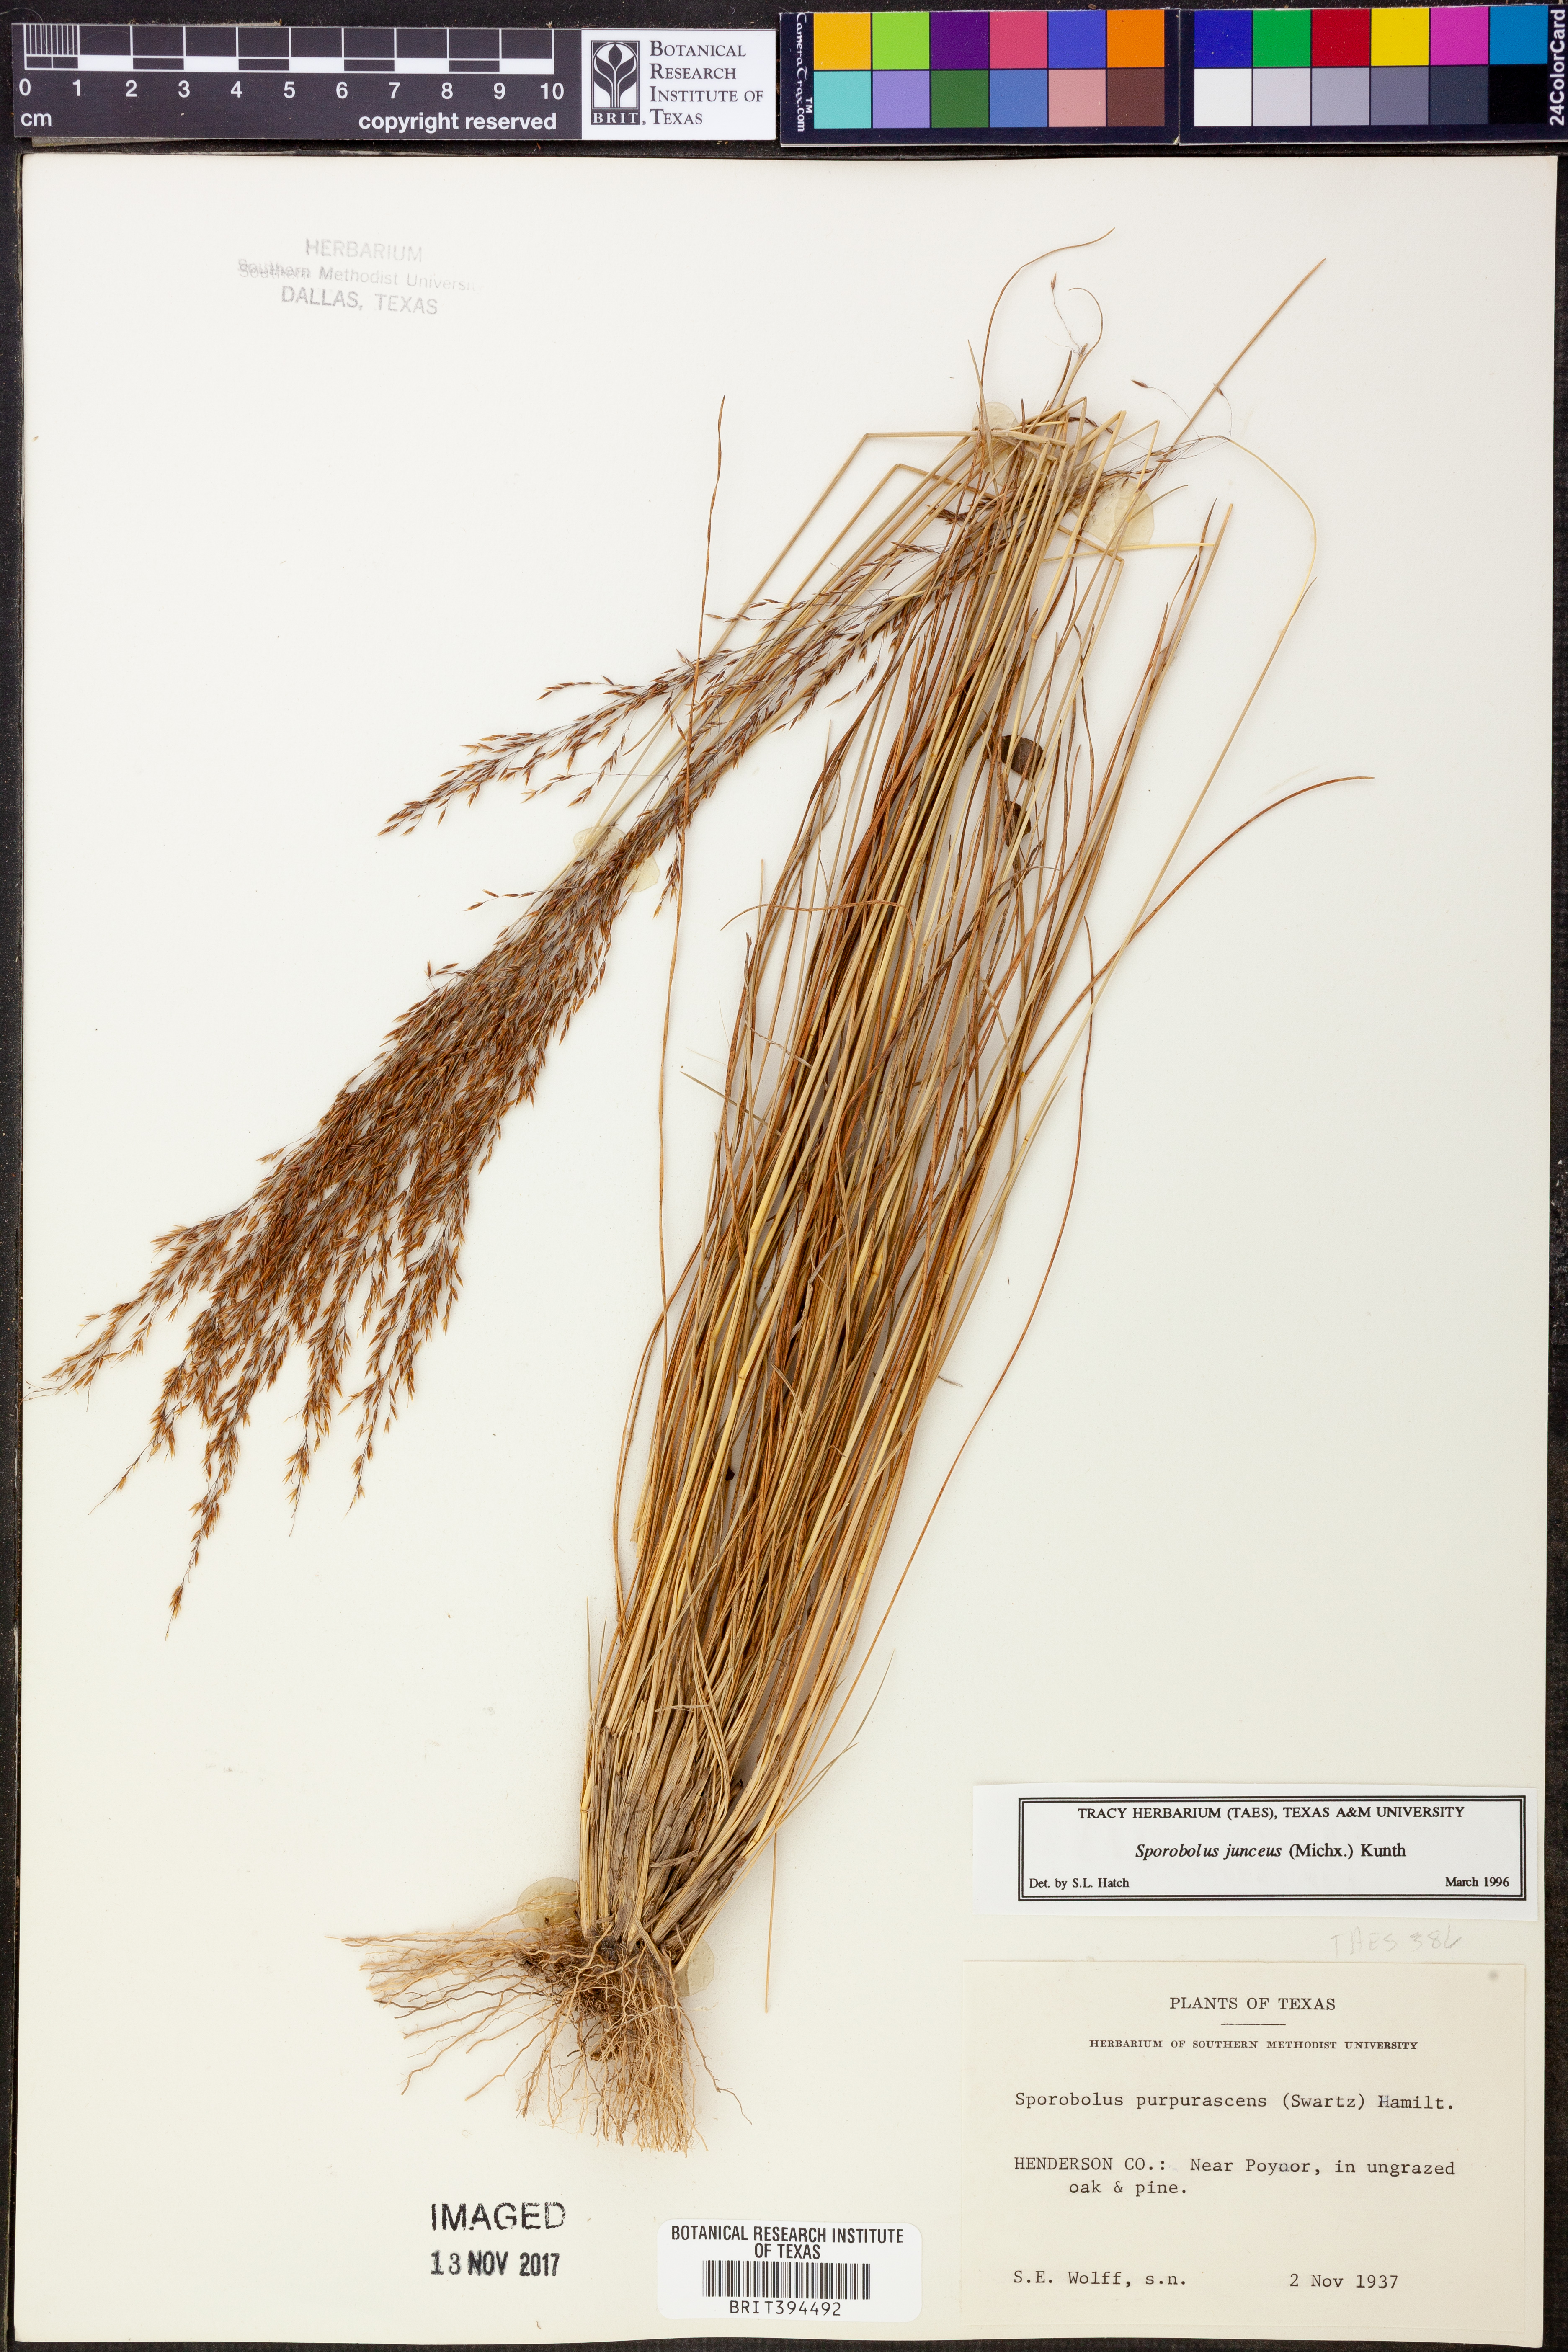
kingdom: Plantae
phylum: Tracheophyta
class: Liliopsida
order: Poales
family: Poaceae
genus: Sporobolus
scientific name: Sporobolus junceus
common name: Lizard grass
